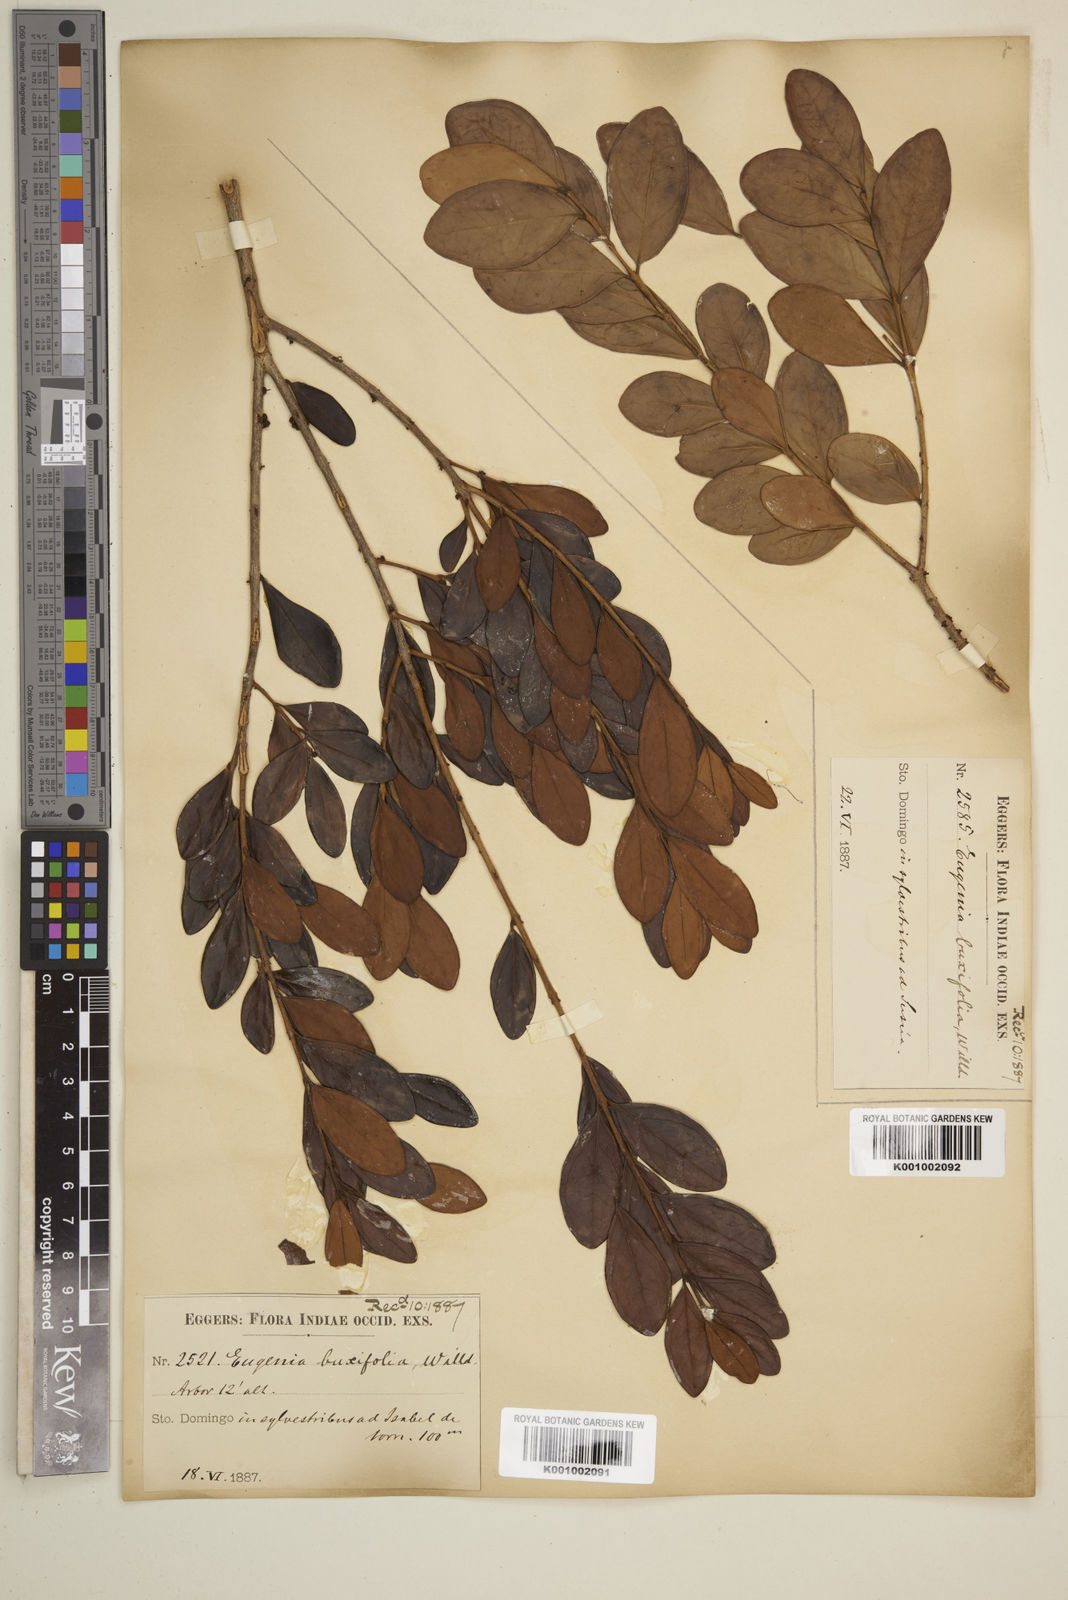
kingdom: Plantae
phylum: Tracheophyta
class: Magnoliopsida
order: Myrtales
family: Myrtaceae
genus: Eugenia
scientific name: Eugenia buxifolia
